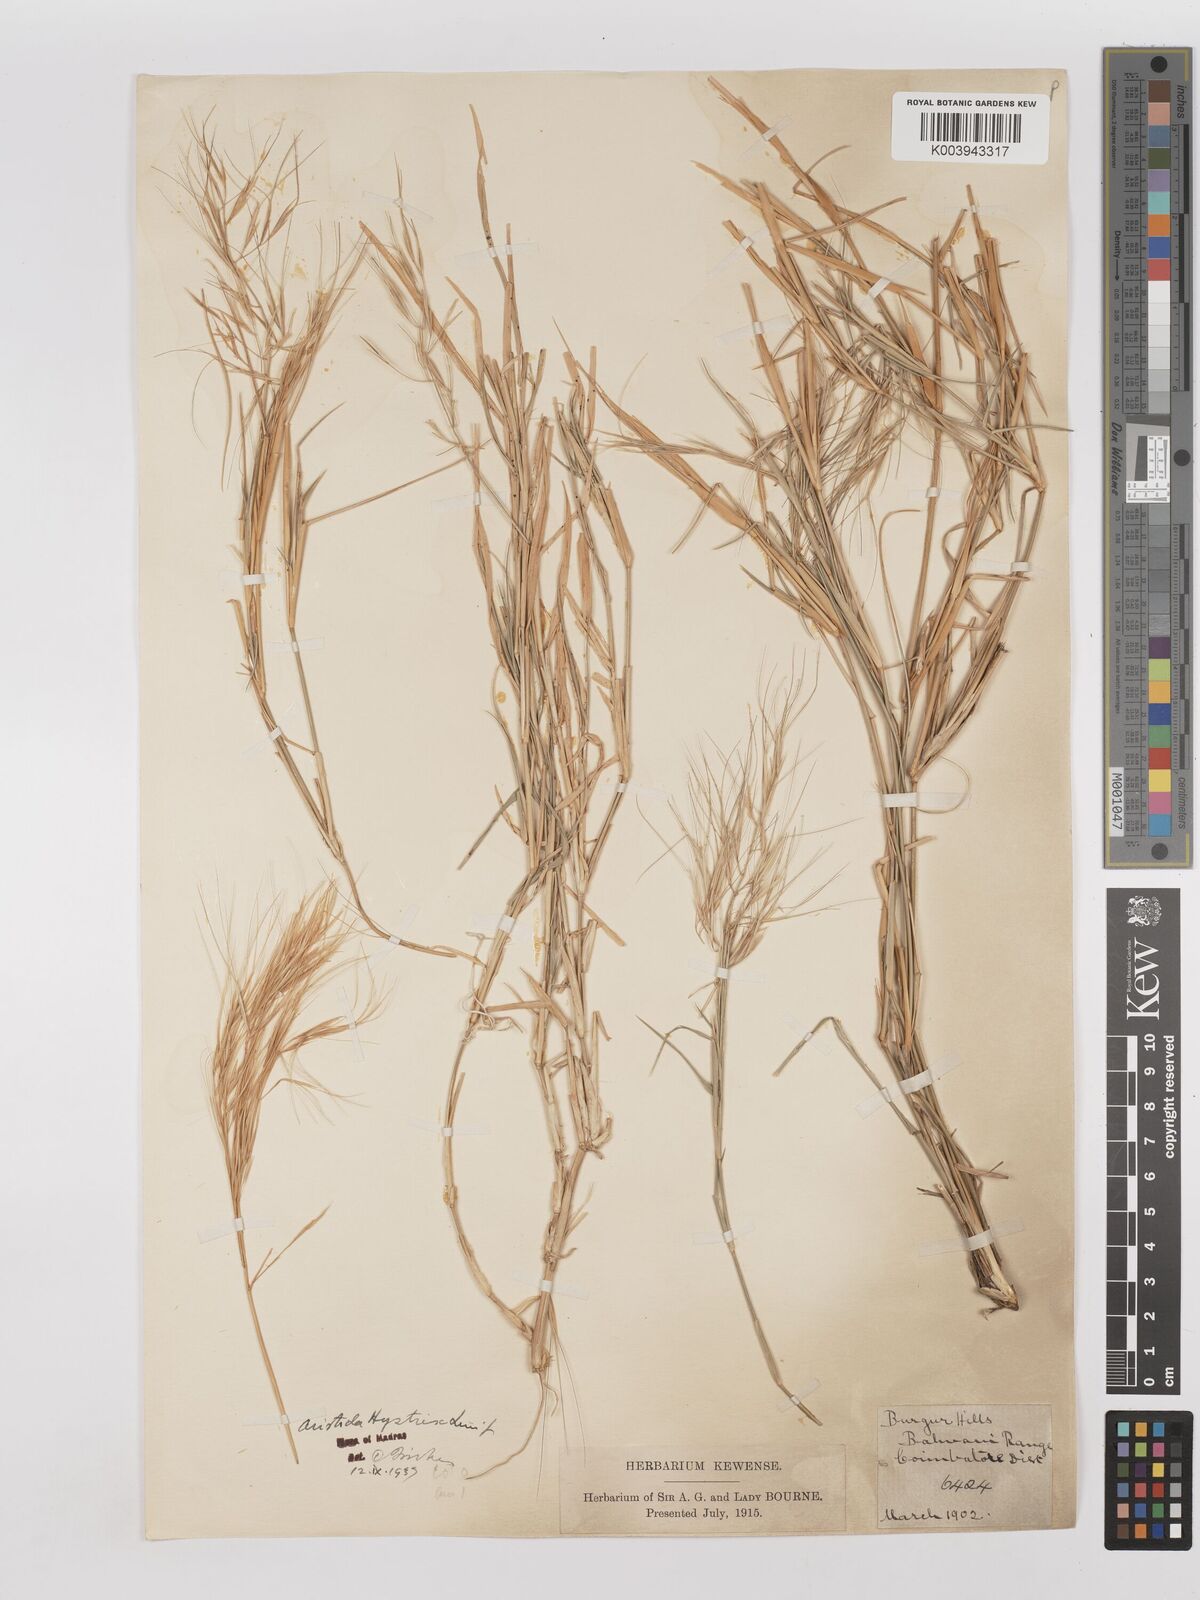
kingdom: Plantae
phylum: Tracheophyta
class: Liliopsida
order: Poales
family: Poaceae
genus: Aristida
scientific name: Aristida hystrix
